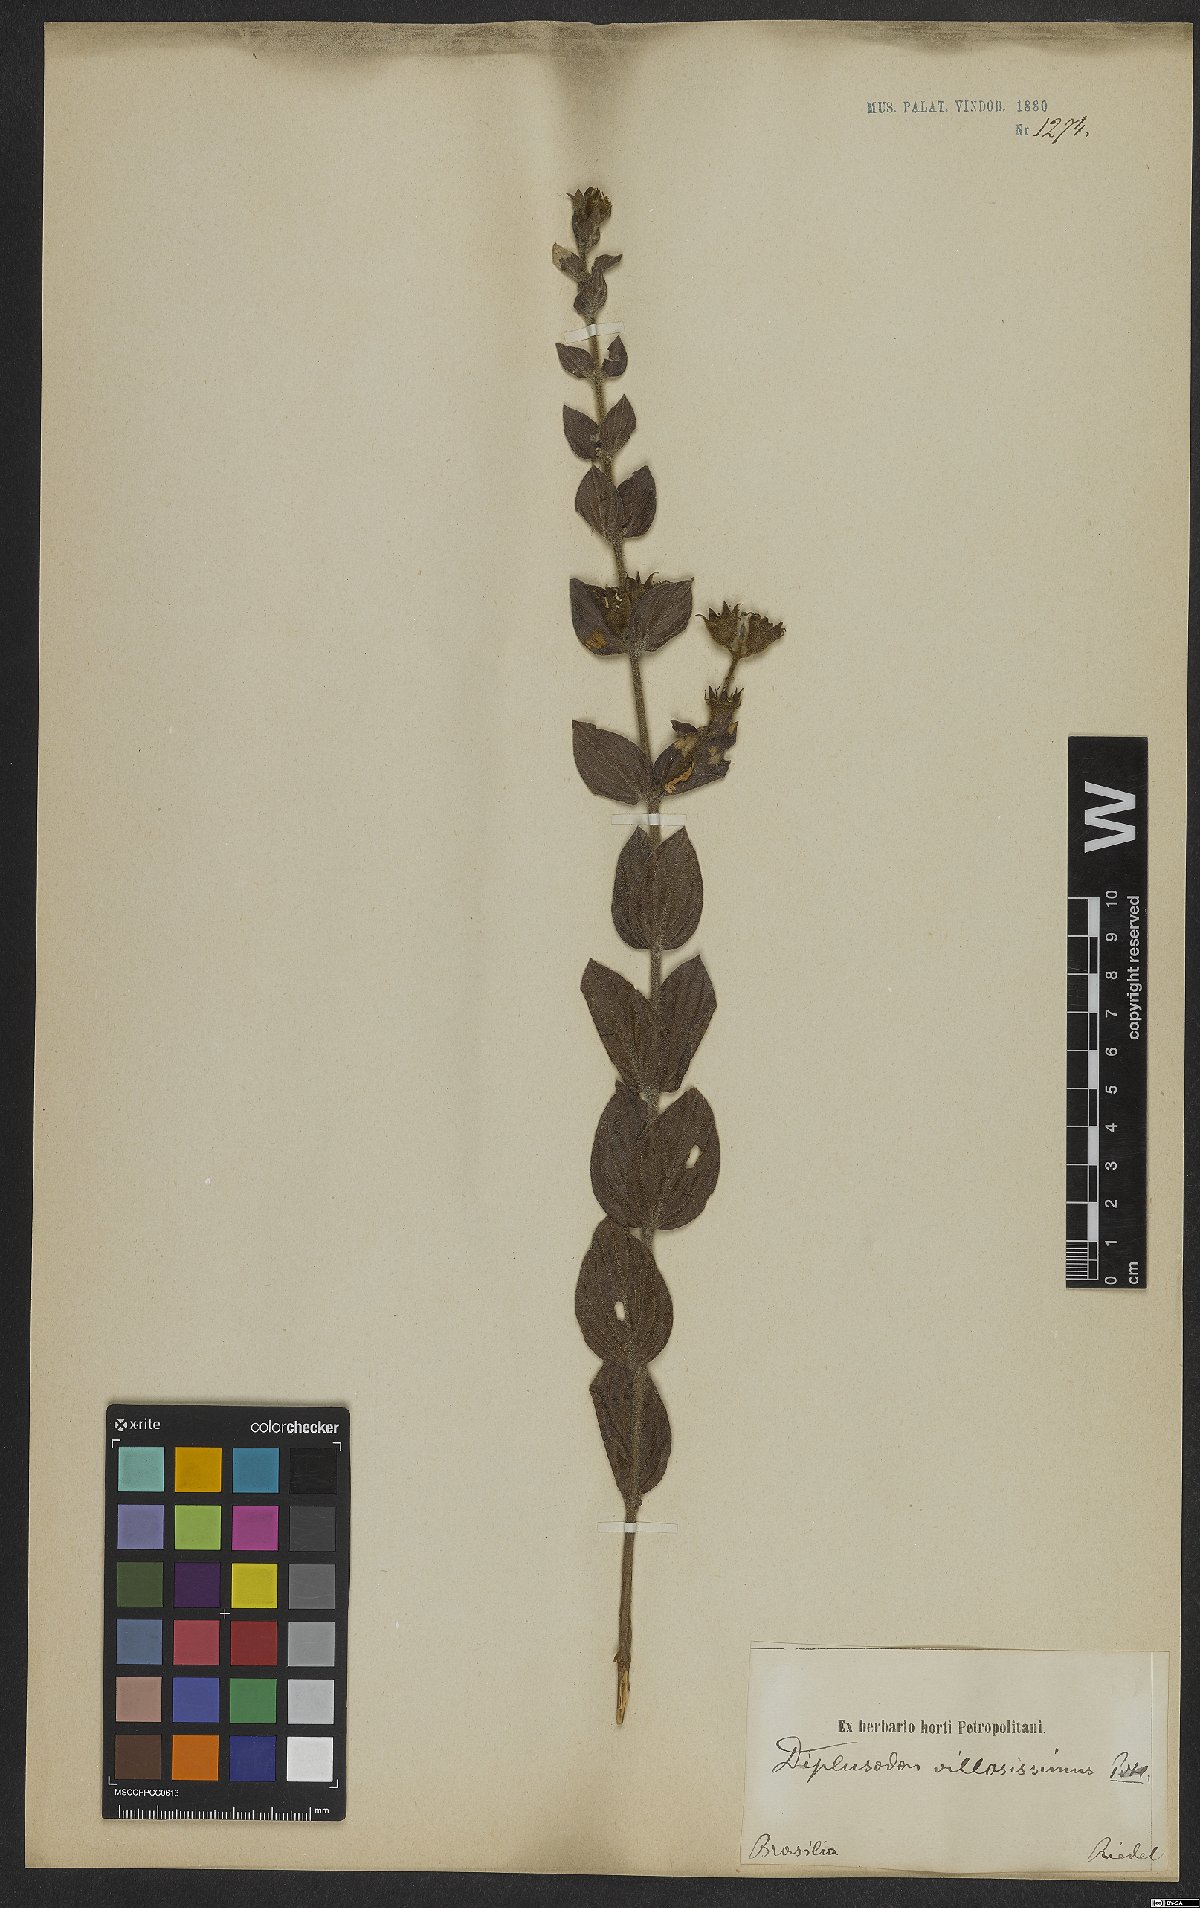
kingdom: Plantae
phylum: Tracheophyta
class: Magnoliopsida
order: Myrtales
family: Lythraceae
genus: Diplusodon
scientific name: Diplusodon villosissimus
